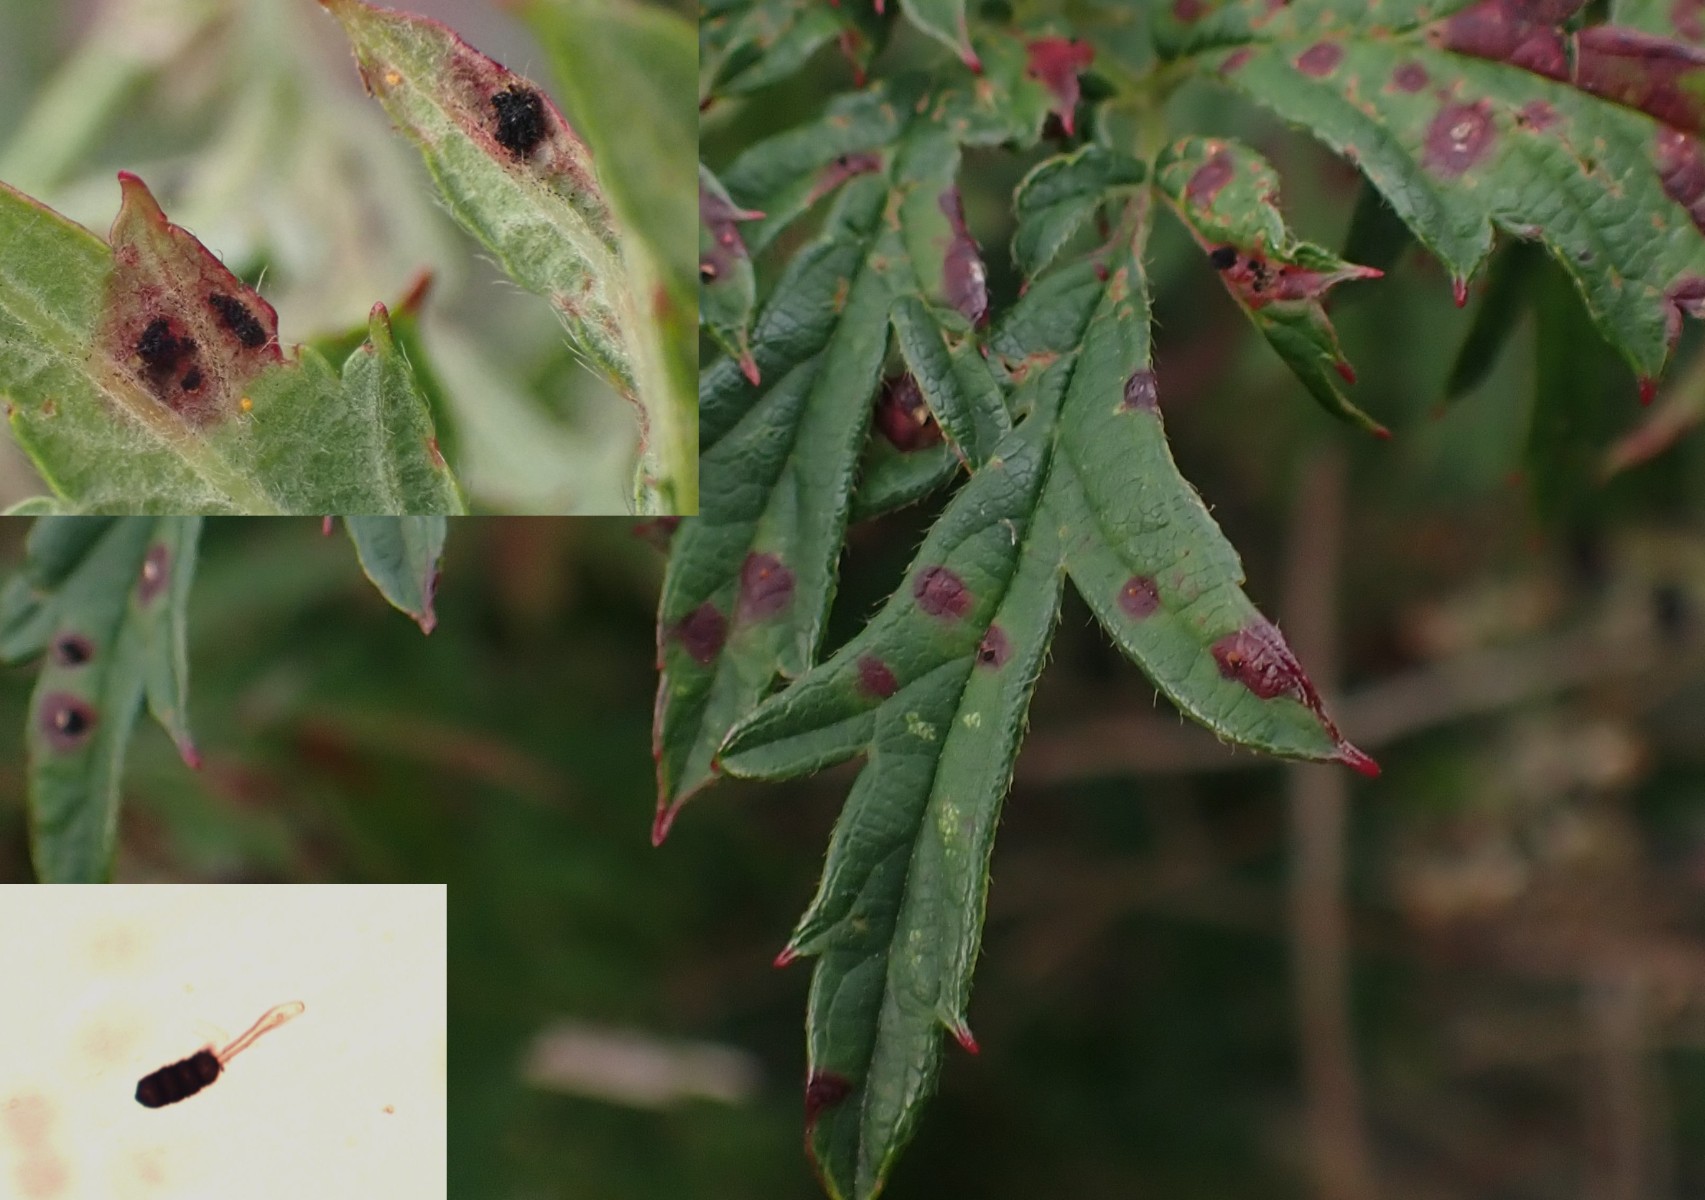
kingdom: Fungi
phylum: Basidiomycota
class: Pucciniomycetes
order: Pucciniales
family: Phragmidiaceae
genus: Phragmidium
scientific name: Phragmidium violaceum
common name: violet flercellerust
